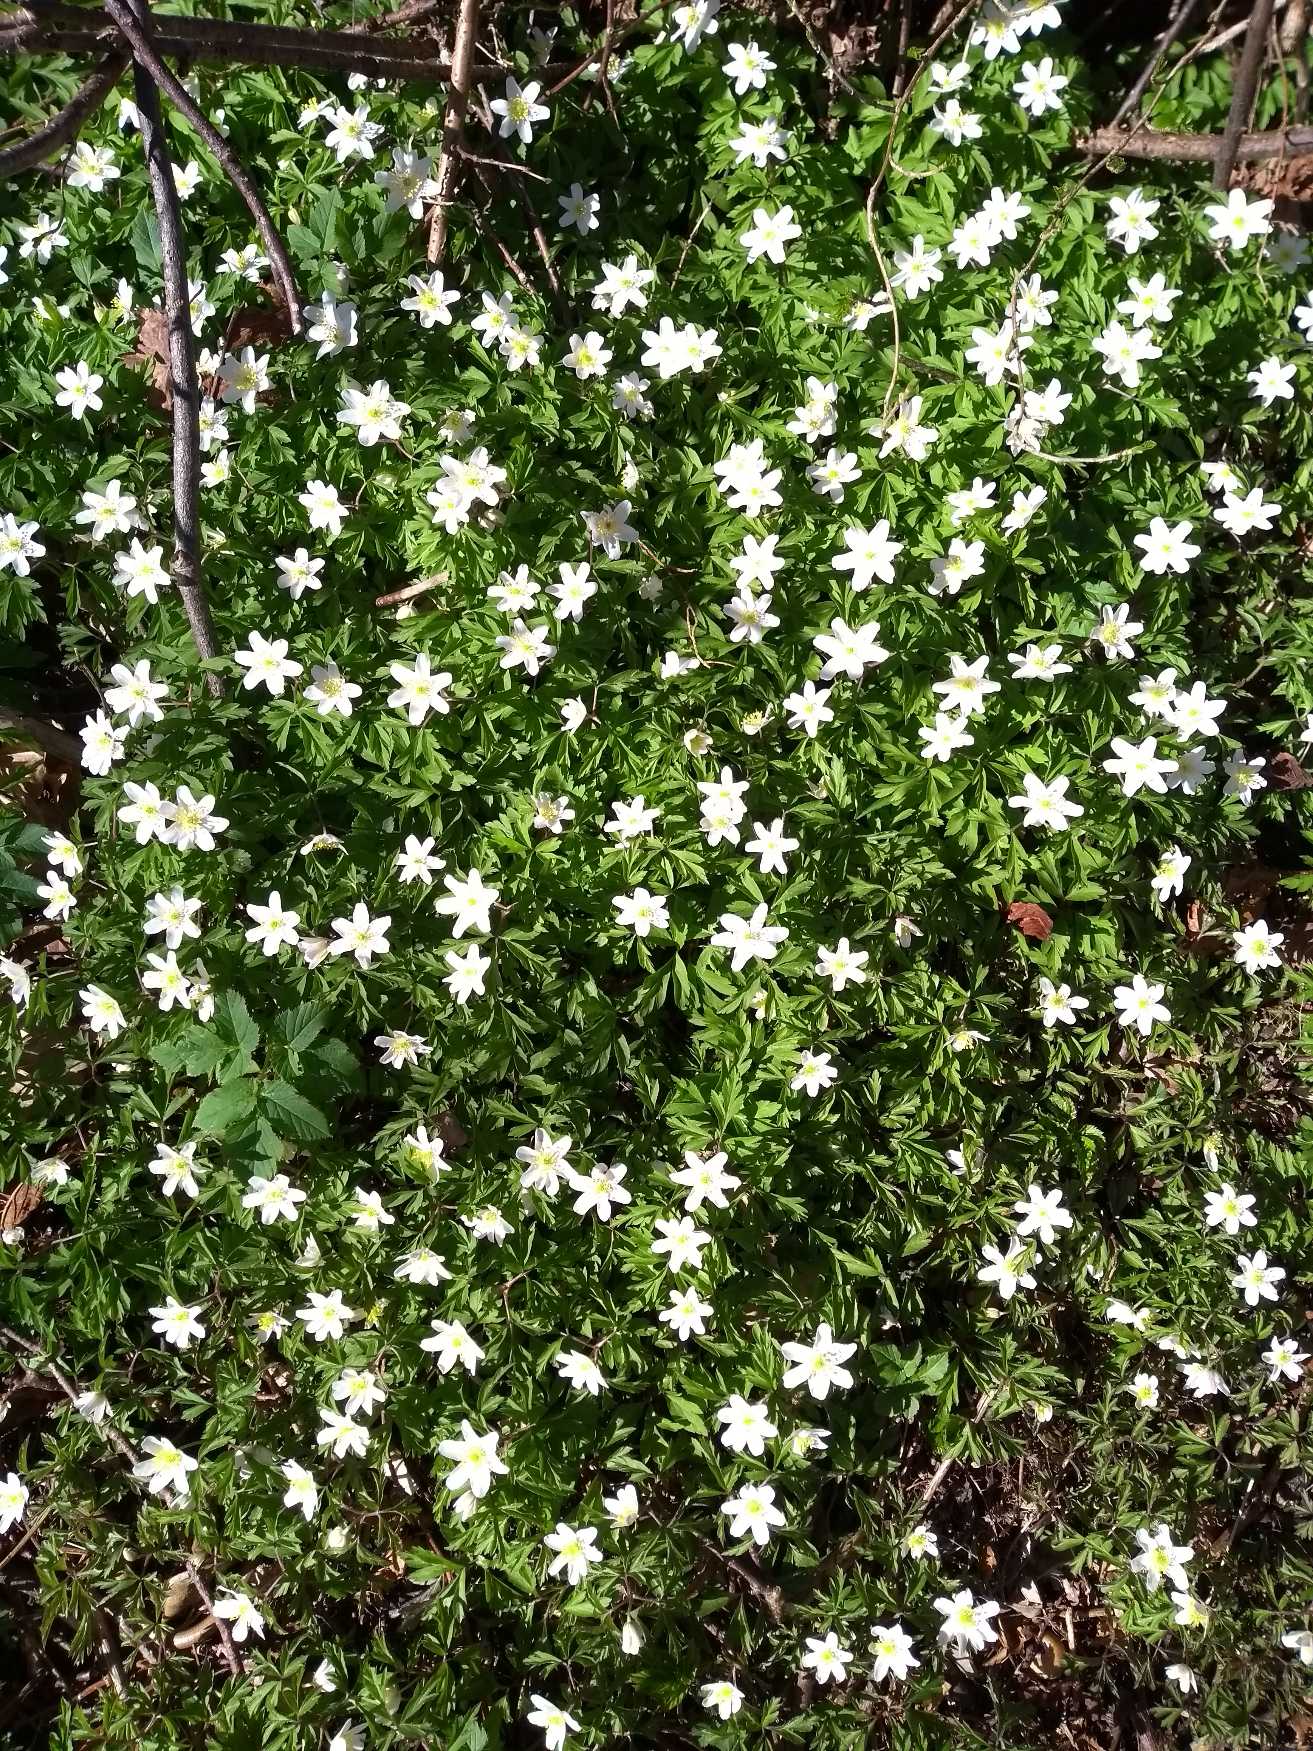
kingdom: Plantae
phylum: Tracheophyta
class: Magnoliopsida
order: Ranunculales
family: Ranunculaceae
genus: Anemone
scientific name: Anemone nemorosa
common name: Hvid anemone
